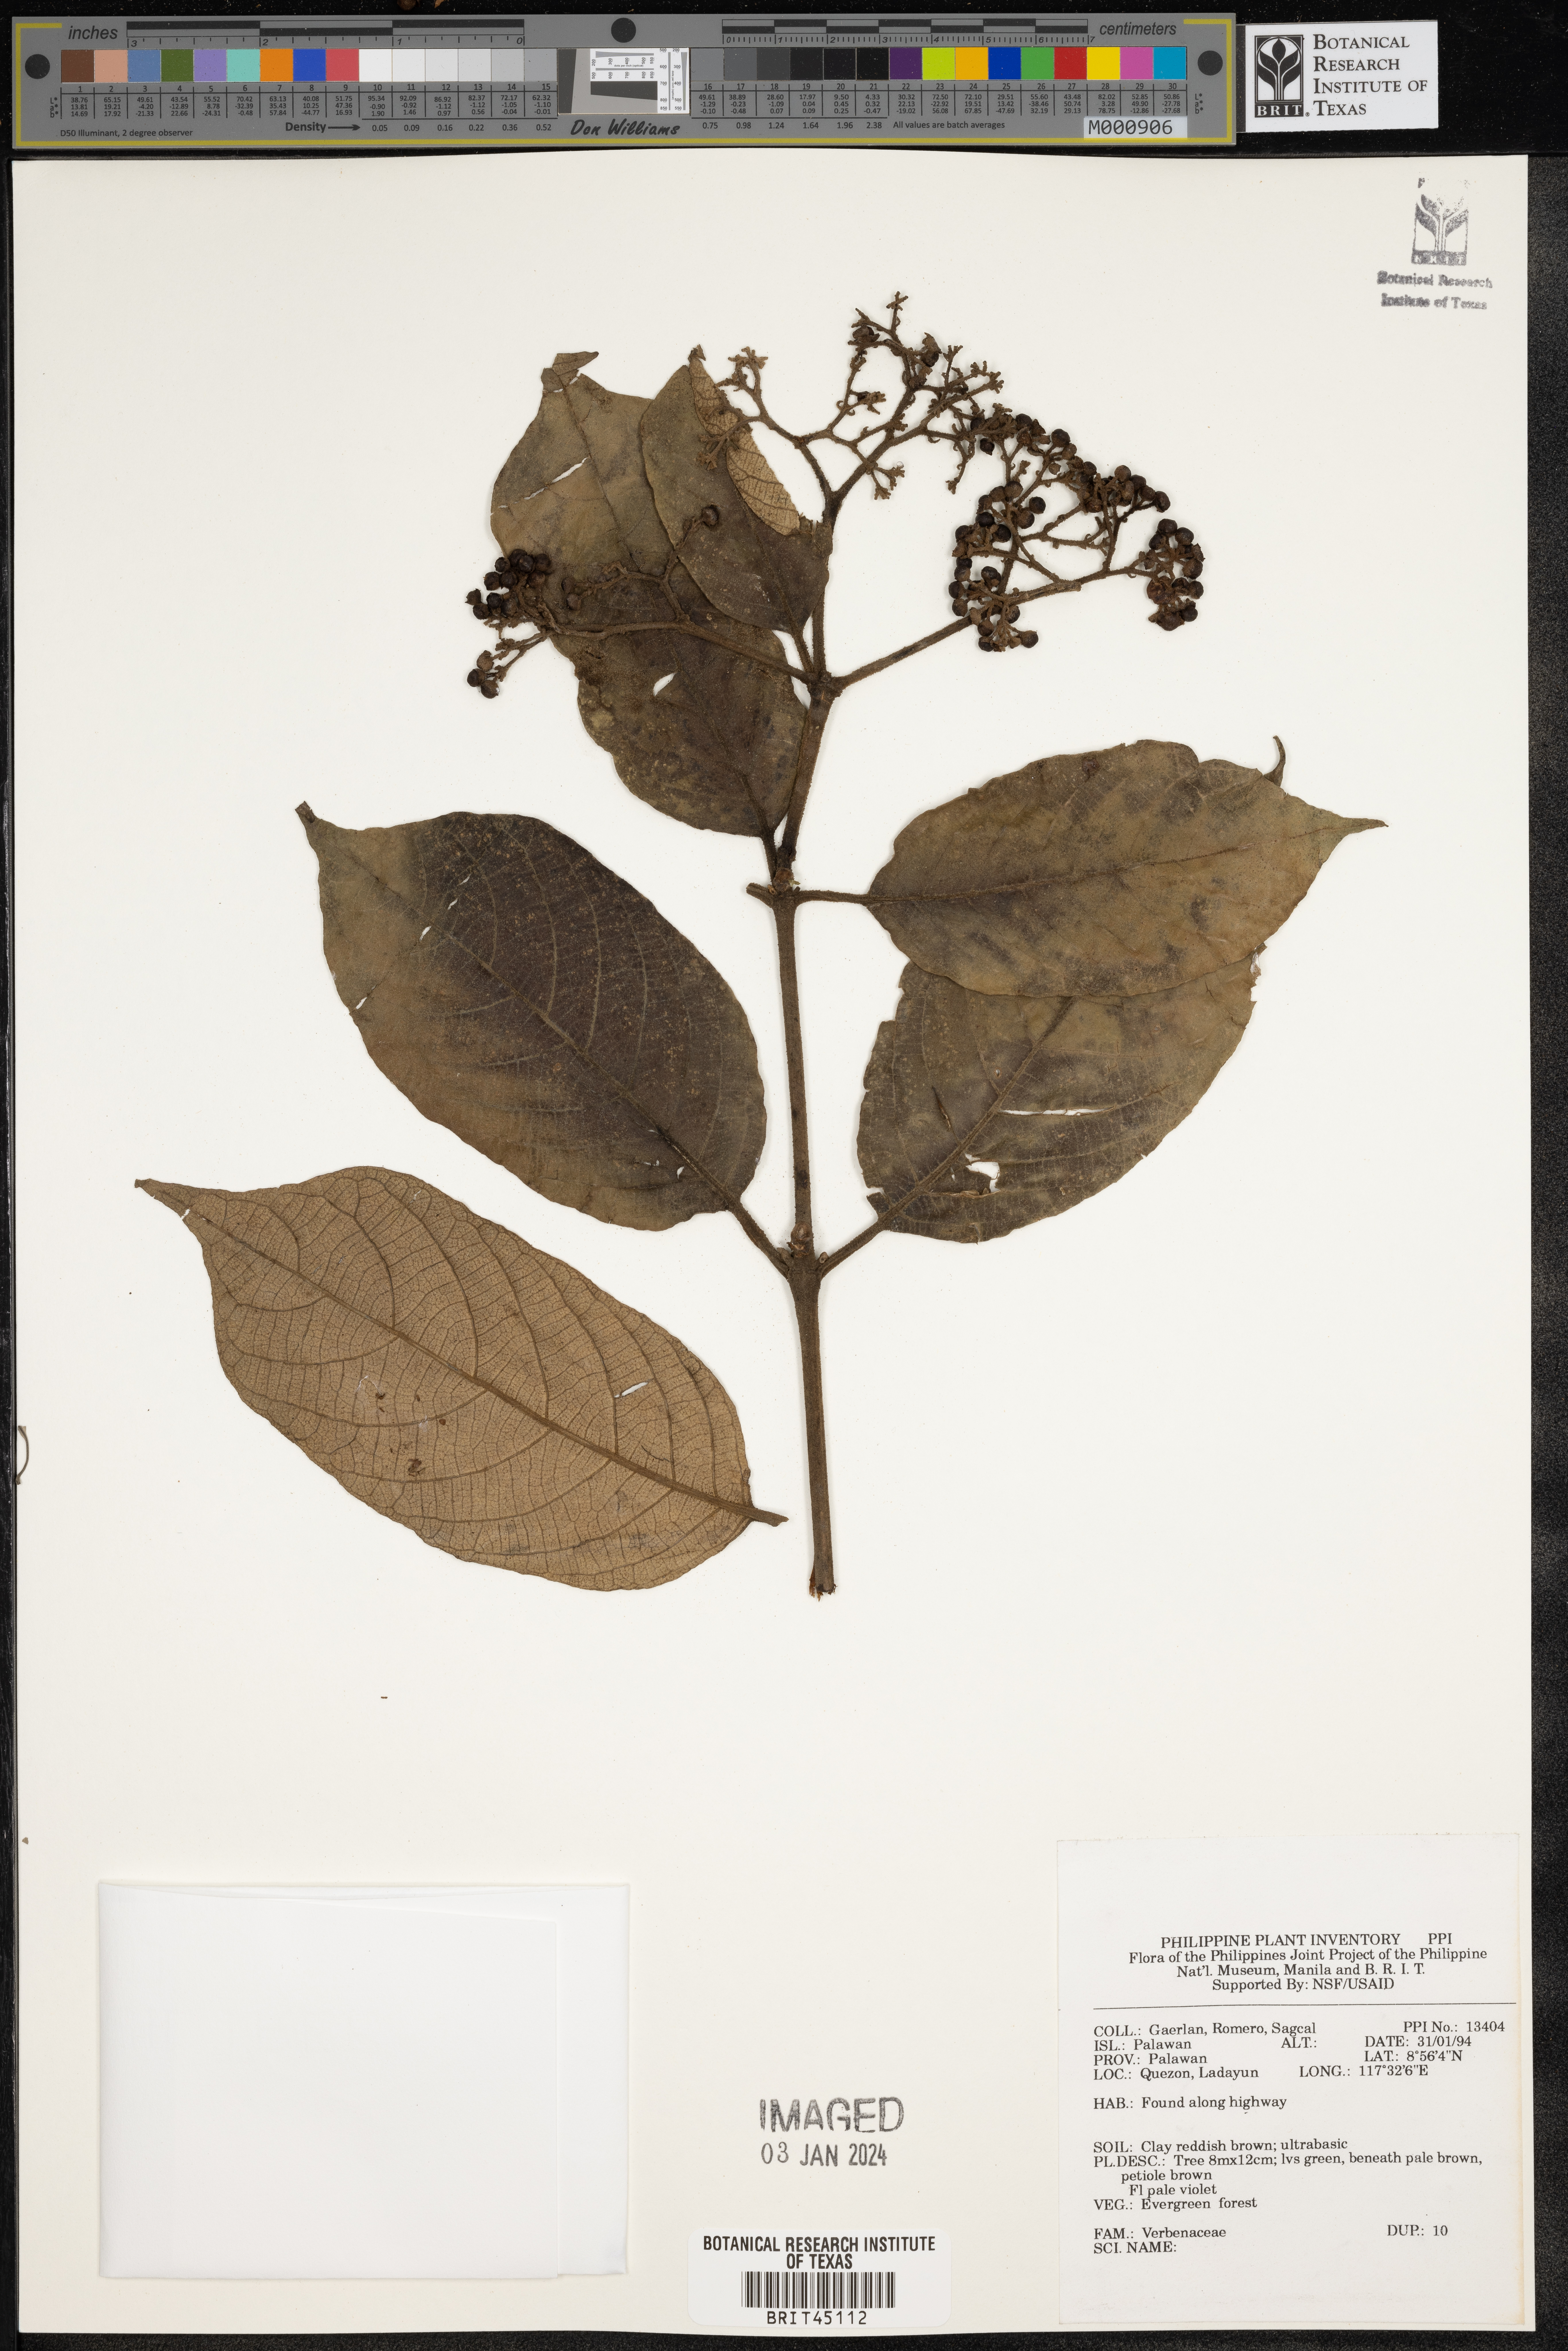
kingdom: Plantae
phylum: Tracheophyta
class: Magnoliopsida
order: Lamiales
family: Verbenaceae
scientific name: Verbenaceae
